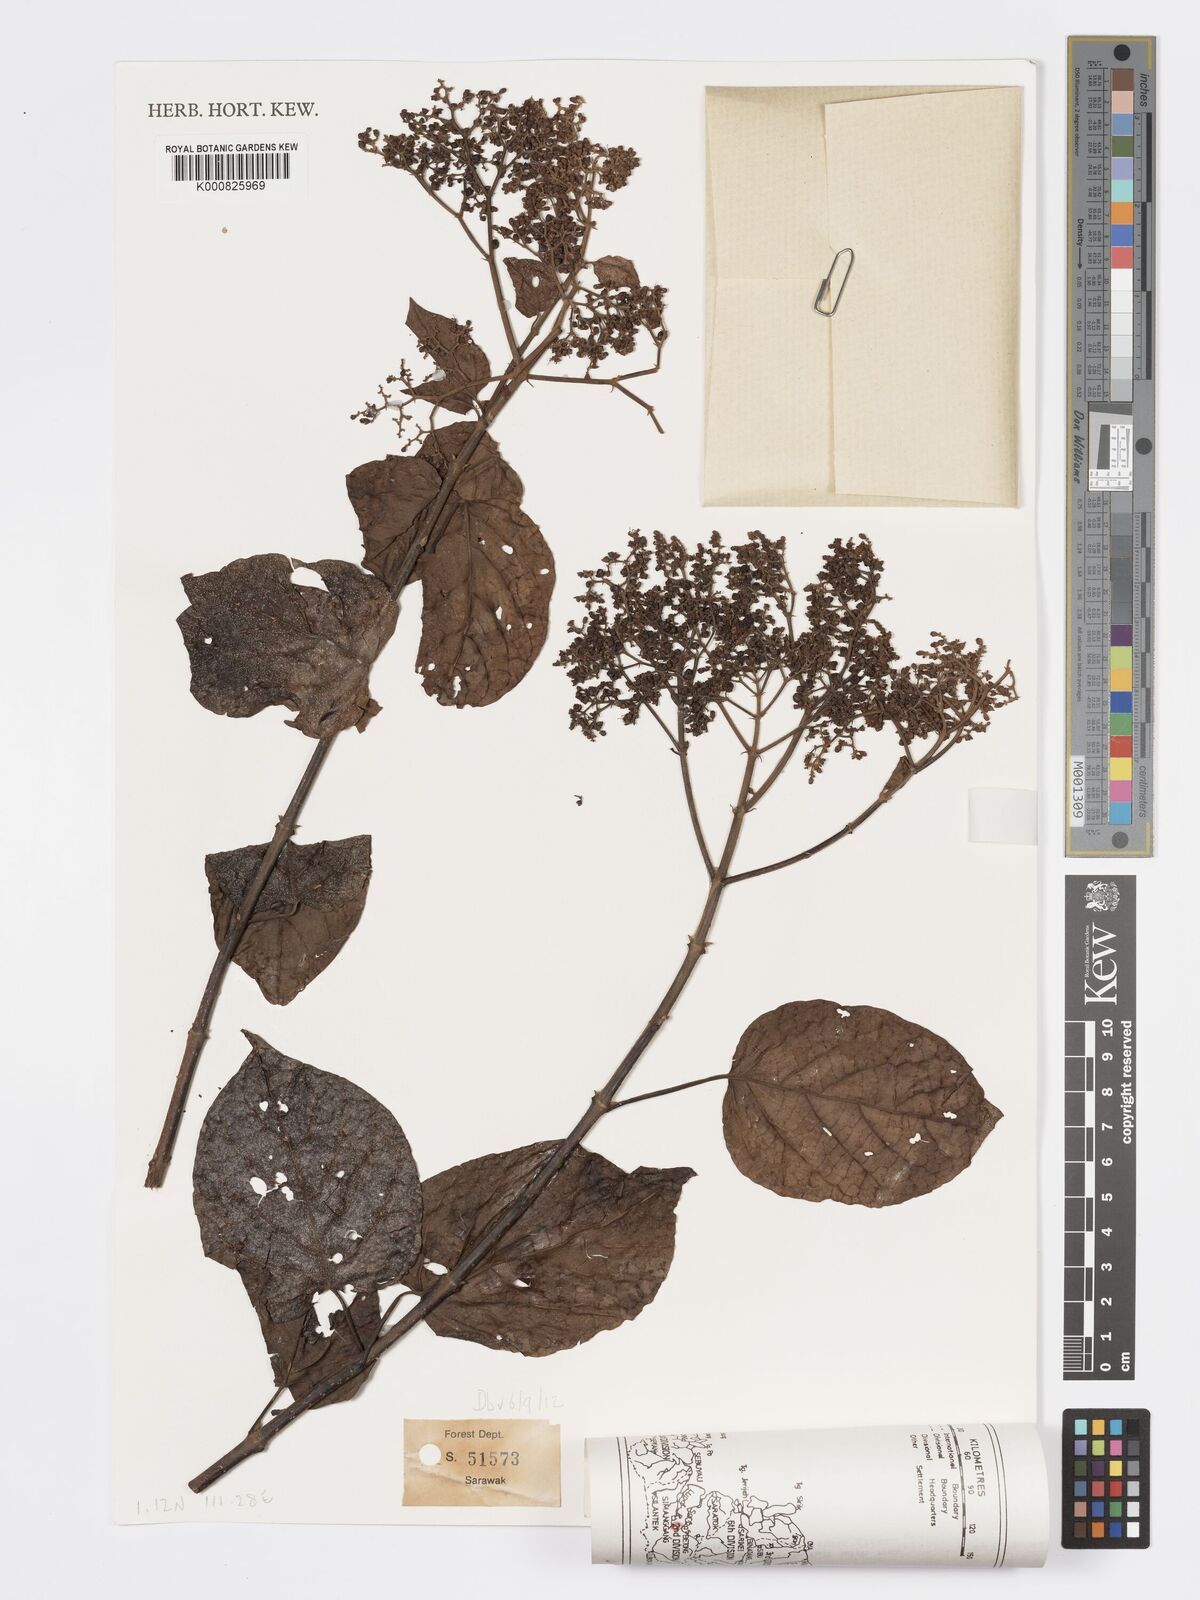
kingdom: Plantae
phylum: Tracheophyta
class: Magnoliopsida
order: Lamiales
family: Lamiaceae
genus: Premna
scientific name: Premna serratifolia
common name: Bastard guelder
